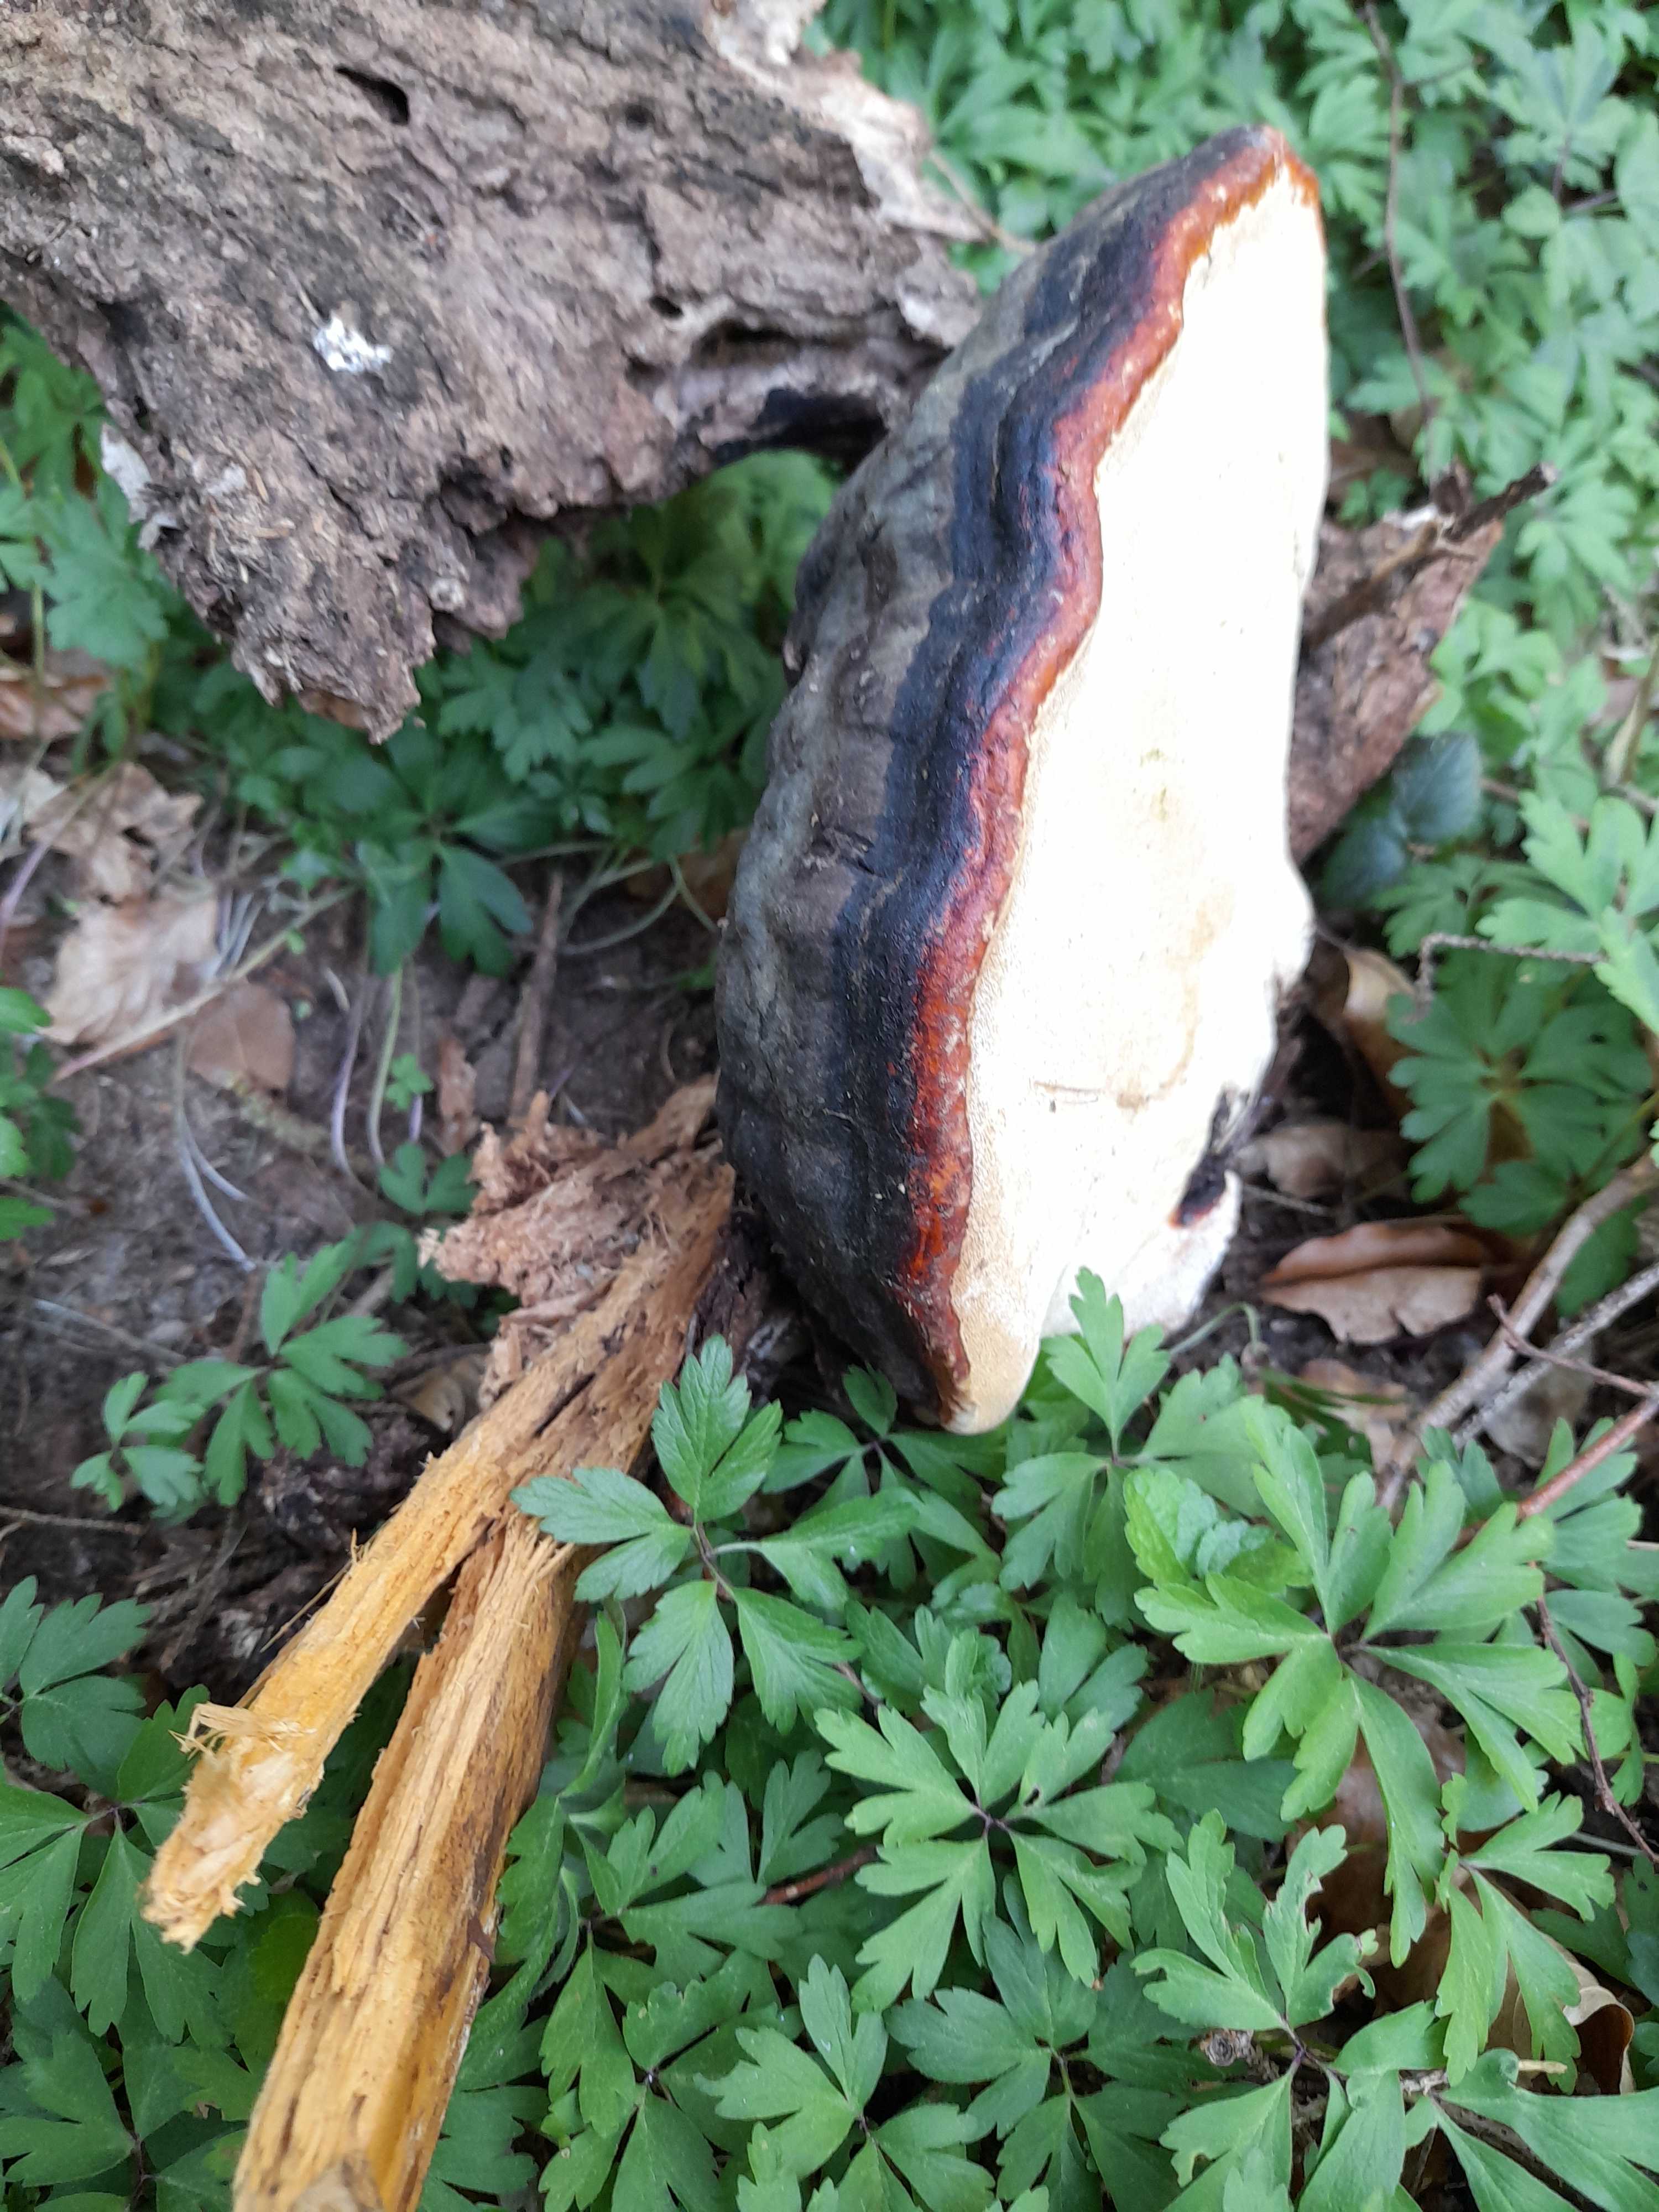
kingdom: Fungi
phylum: Basidiomycota
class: Agaricomycetes
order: Polyporales
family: Fomitopsidaceae
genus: Fomitopsis
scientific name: Fomitopsis pinicola
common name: randbæltet hovporesvamp
